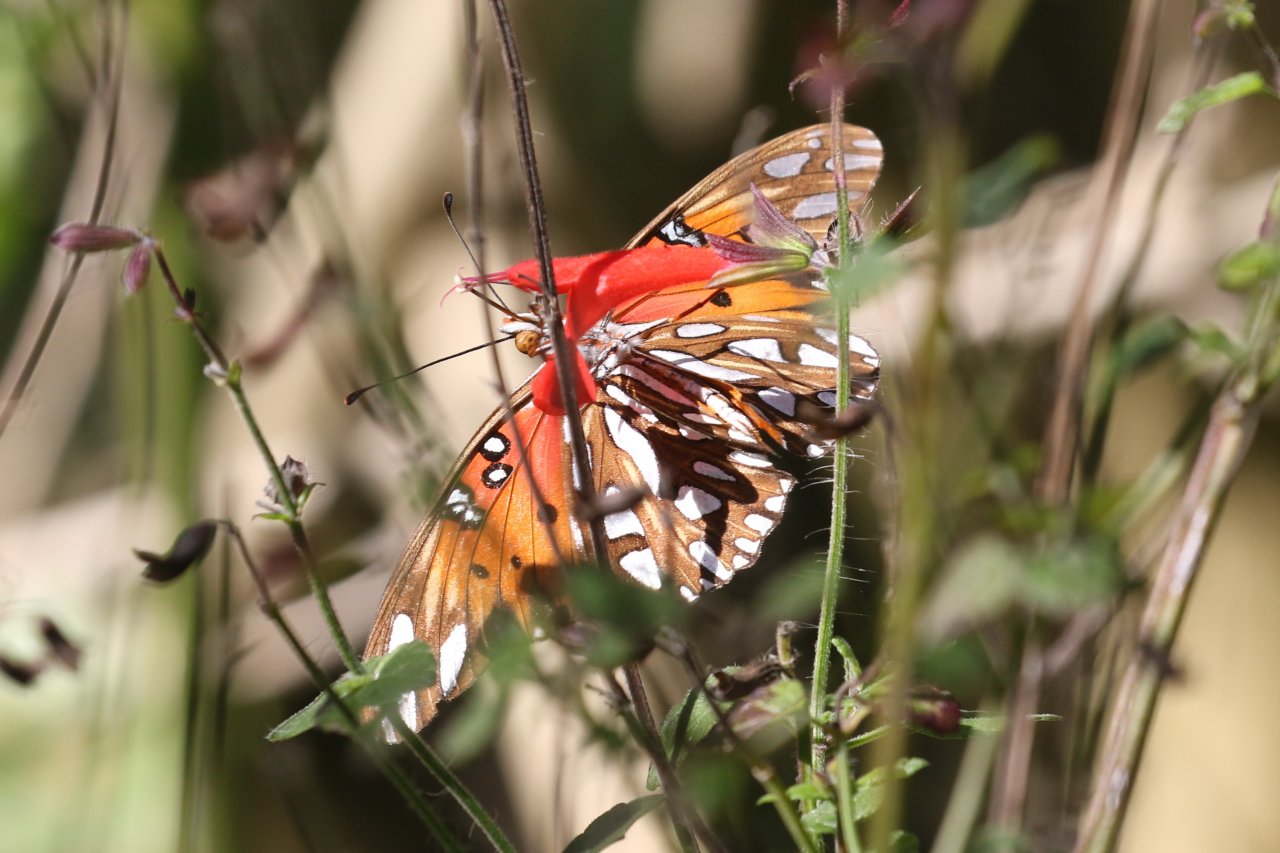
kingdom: Animalia
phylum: Arthropoda
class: Insecta
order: Lepidoptera
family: Nymphalidae
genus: Dione
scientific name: Dione vanillae
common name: Gulf Fritillary
